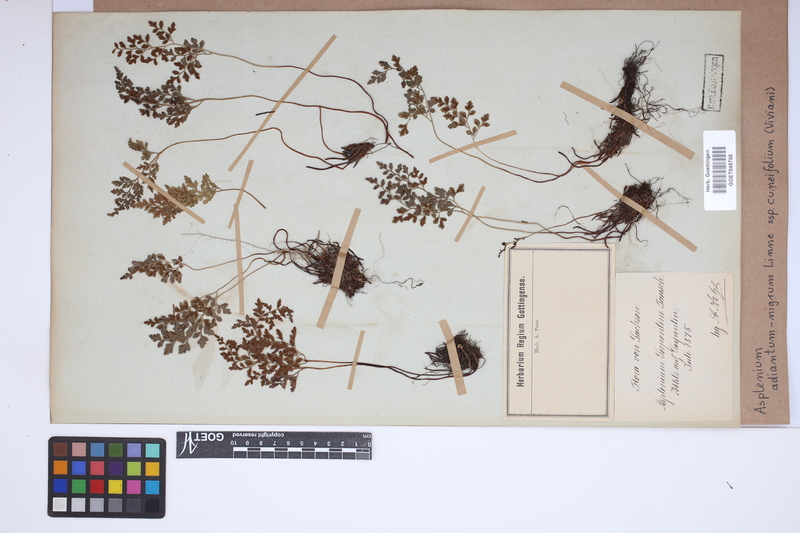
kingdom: Plantae
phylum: Tracheophyta
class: Polypodiopsida
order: Polypodiales
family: Aspleniaceae
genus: Asplenium
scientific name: Asplenium cuneifolium
